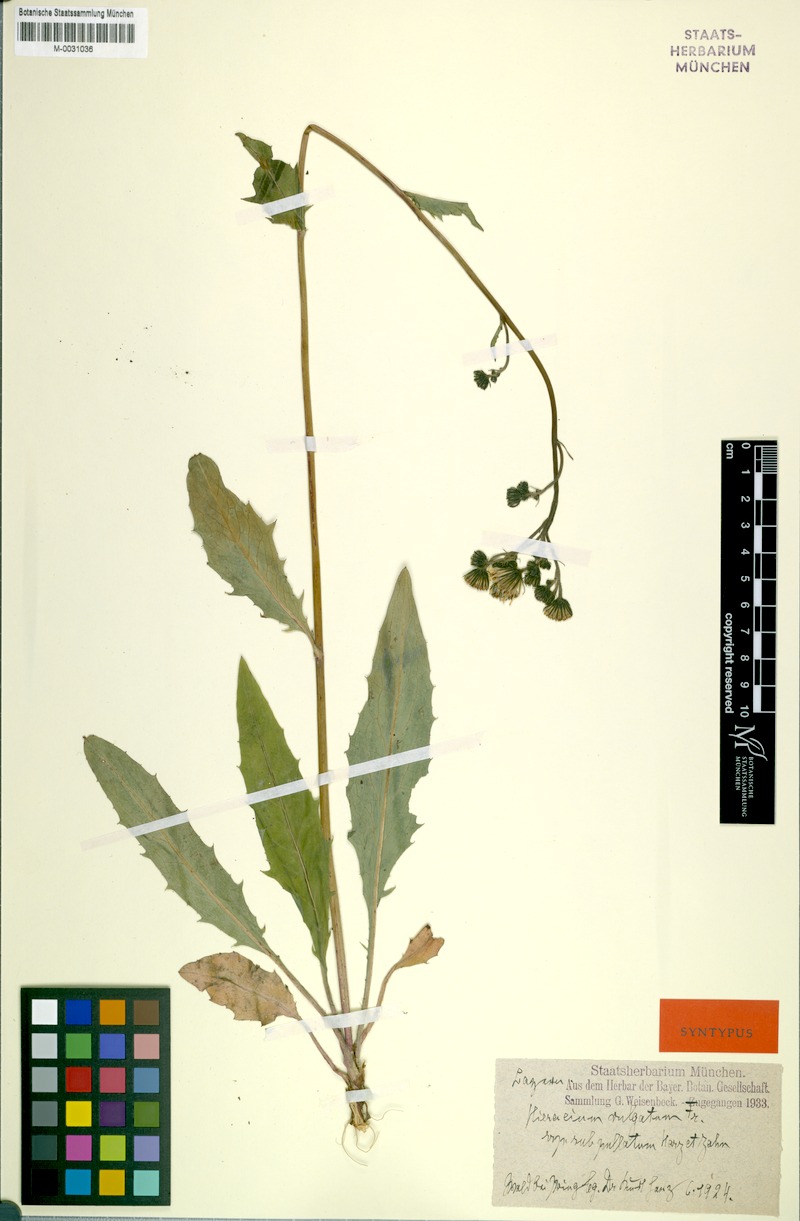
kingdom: Plantae
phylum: Tracheophyta
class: Magnoliopsida
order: Asterales
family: Asteraceae
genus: Hieracium
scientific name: Hieracium lachenalii
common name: Common hawkweed
